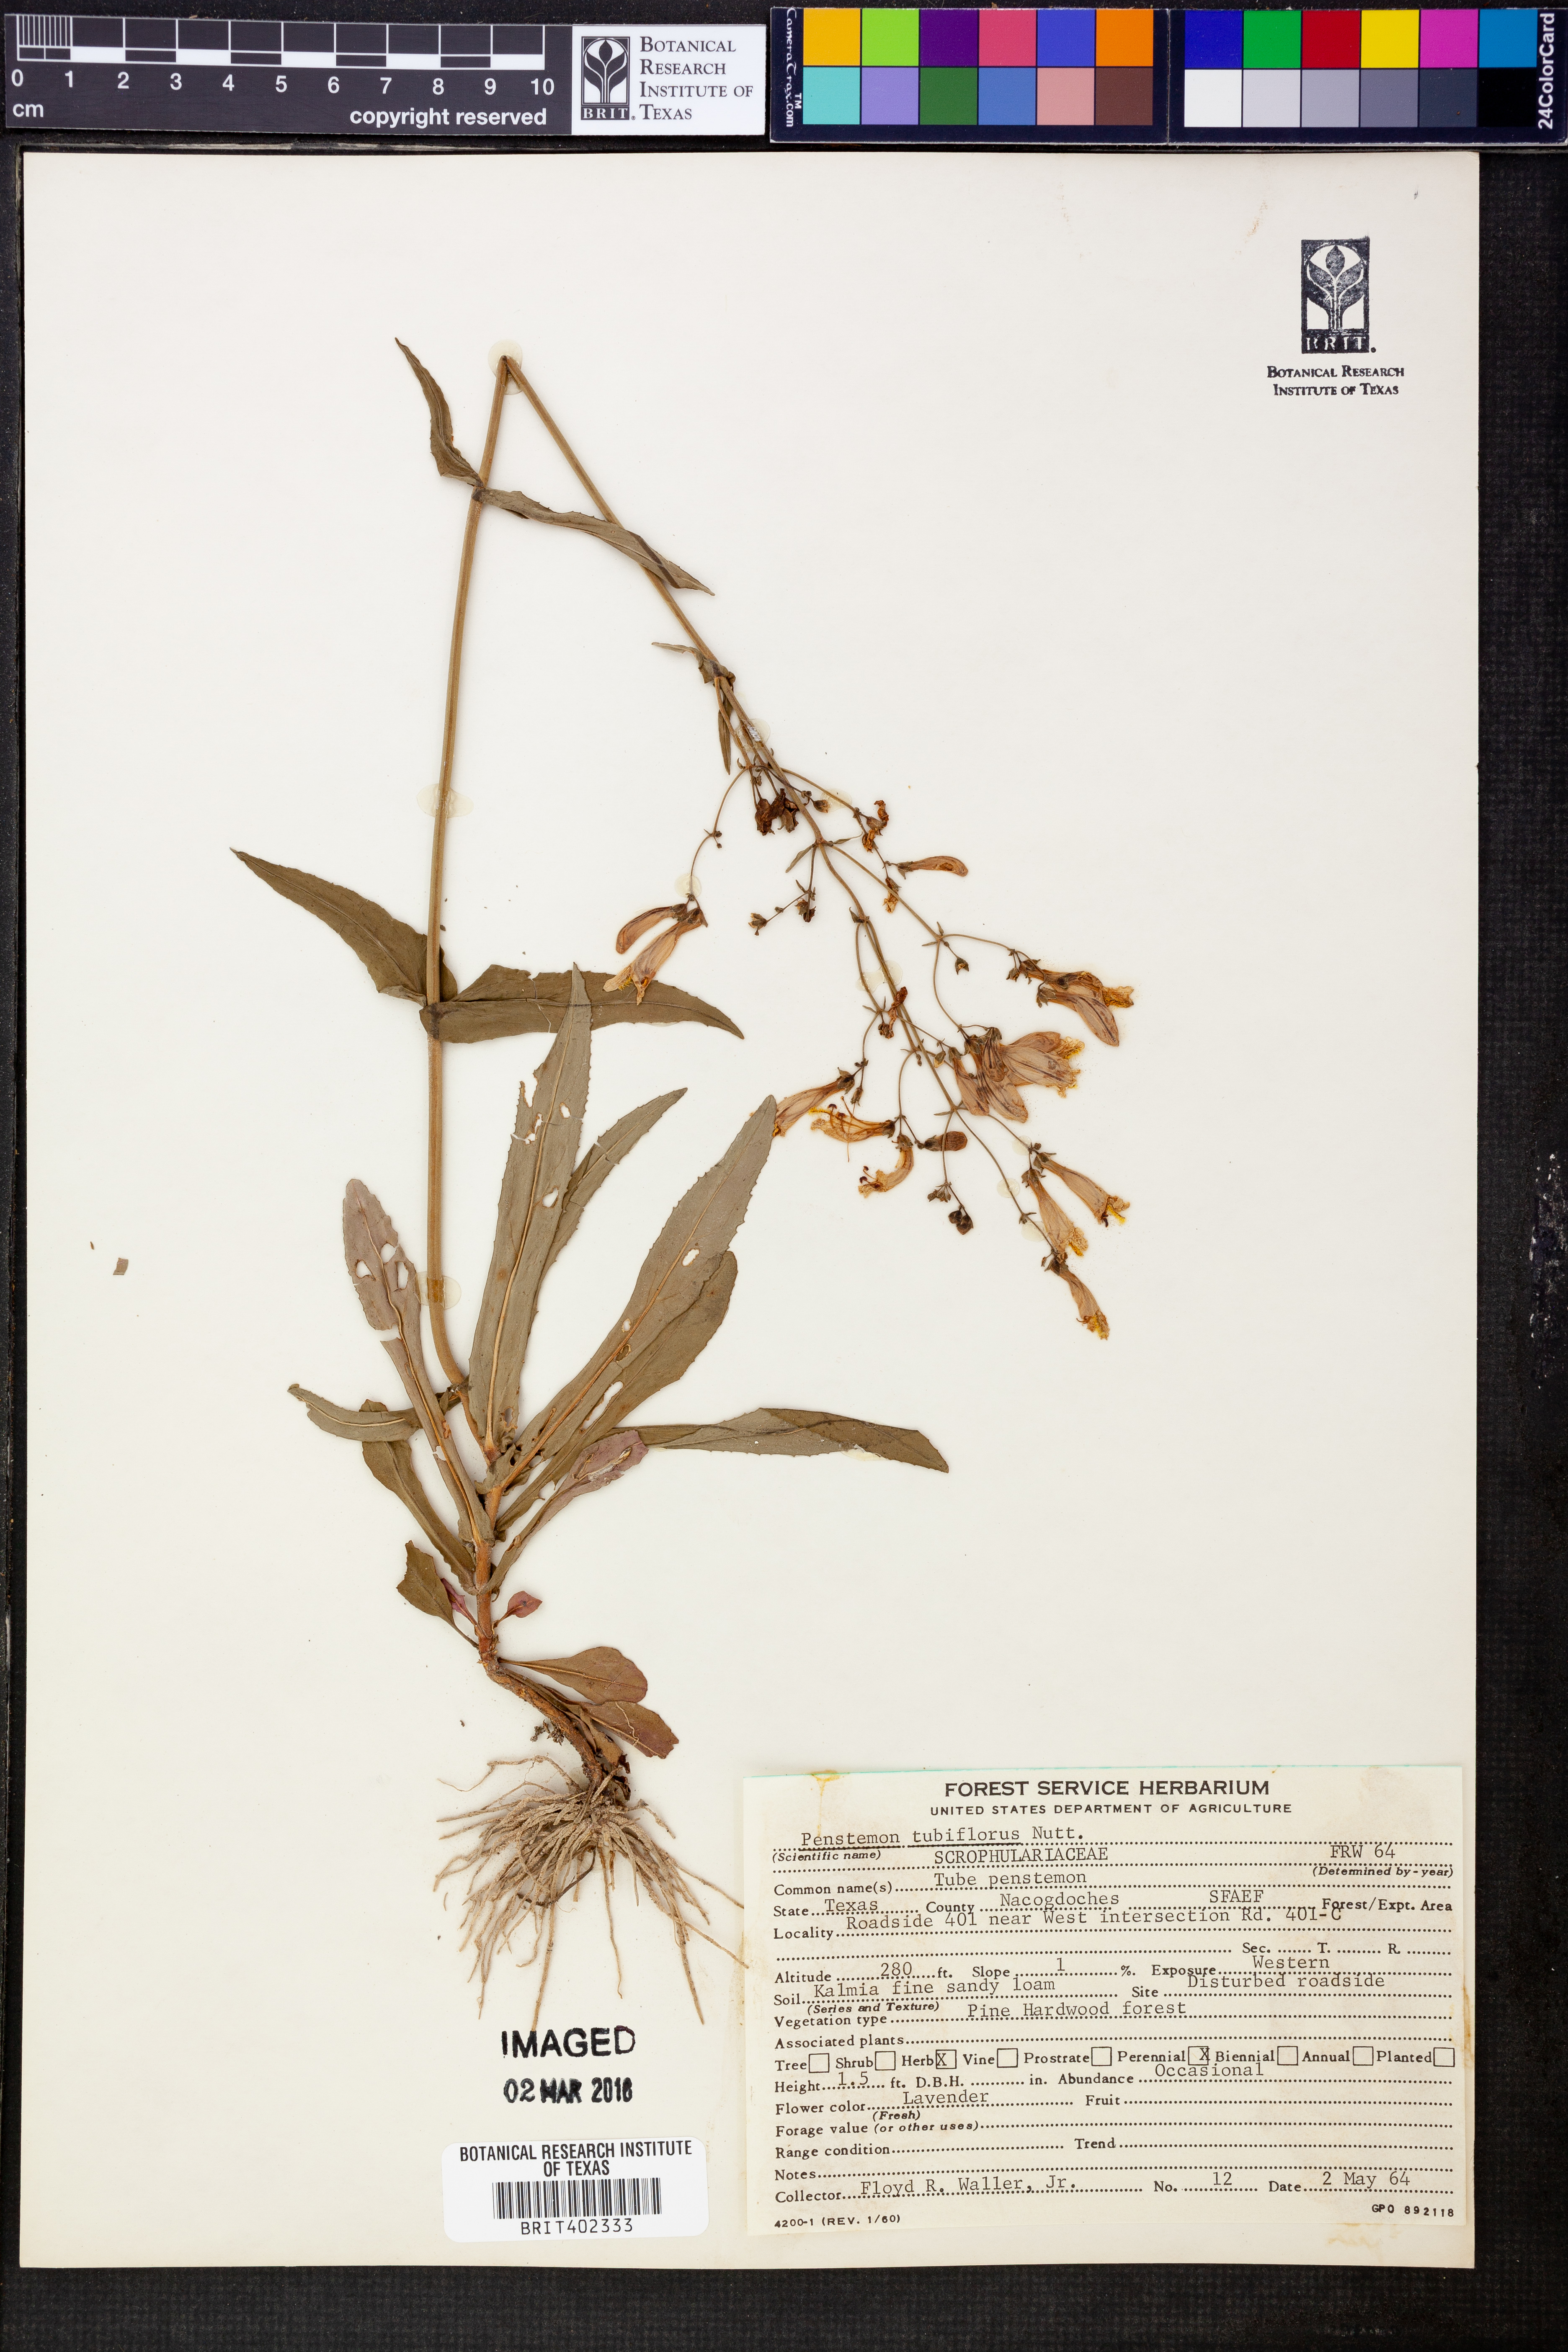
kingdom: Plantae
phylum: Tracheophyta
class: Magnoliopsida
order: Lamiales
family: Plantaginaceae
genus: Penstemon
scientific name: Penstemon tubaeflorus
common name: White wand beardtongue
